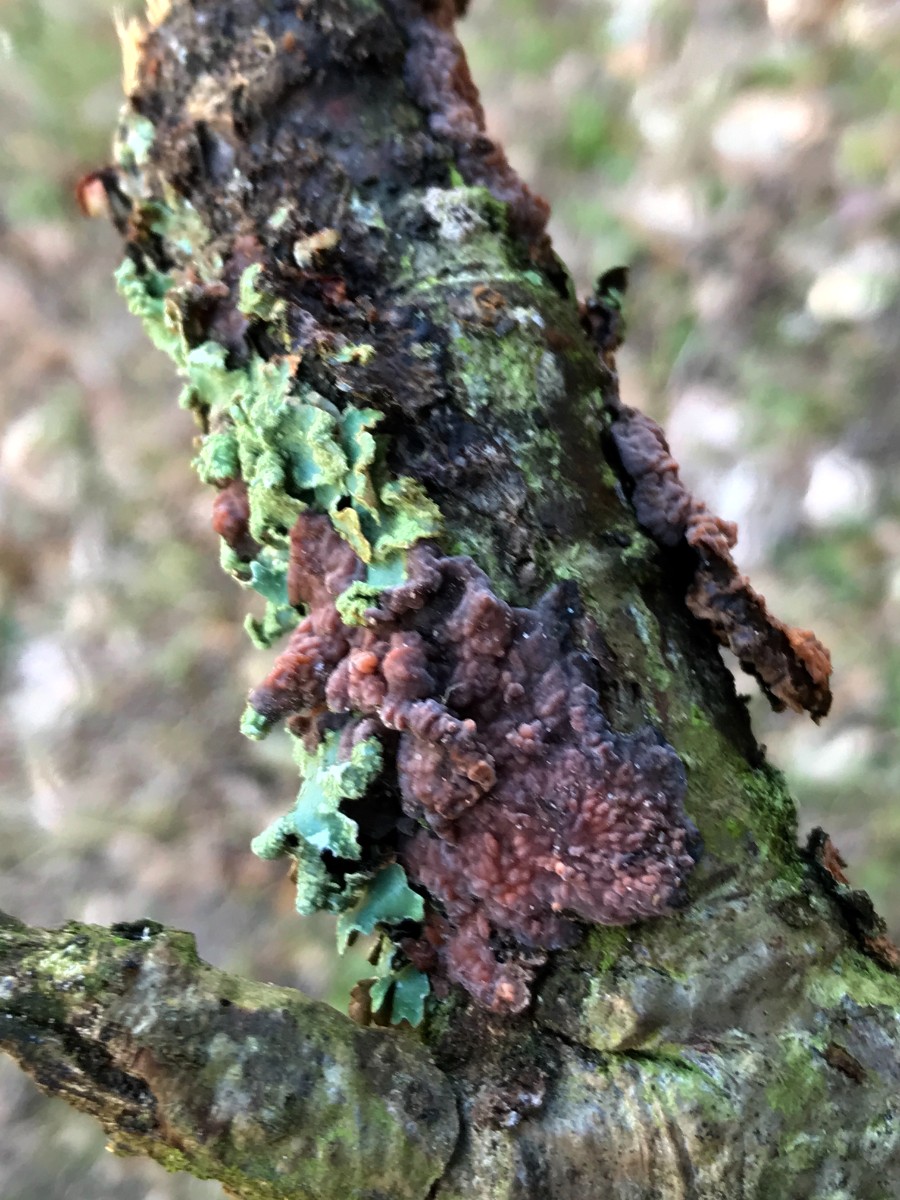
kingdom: Fungi
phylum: Basidiomycota
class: Agaricomycetes
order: Russulales
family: Peniophoraceae
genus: Peniophora
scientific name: Peniophora quercina
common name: ege-voksskind
